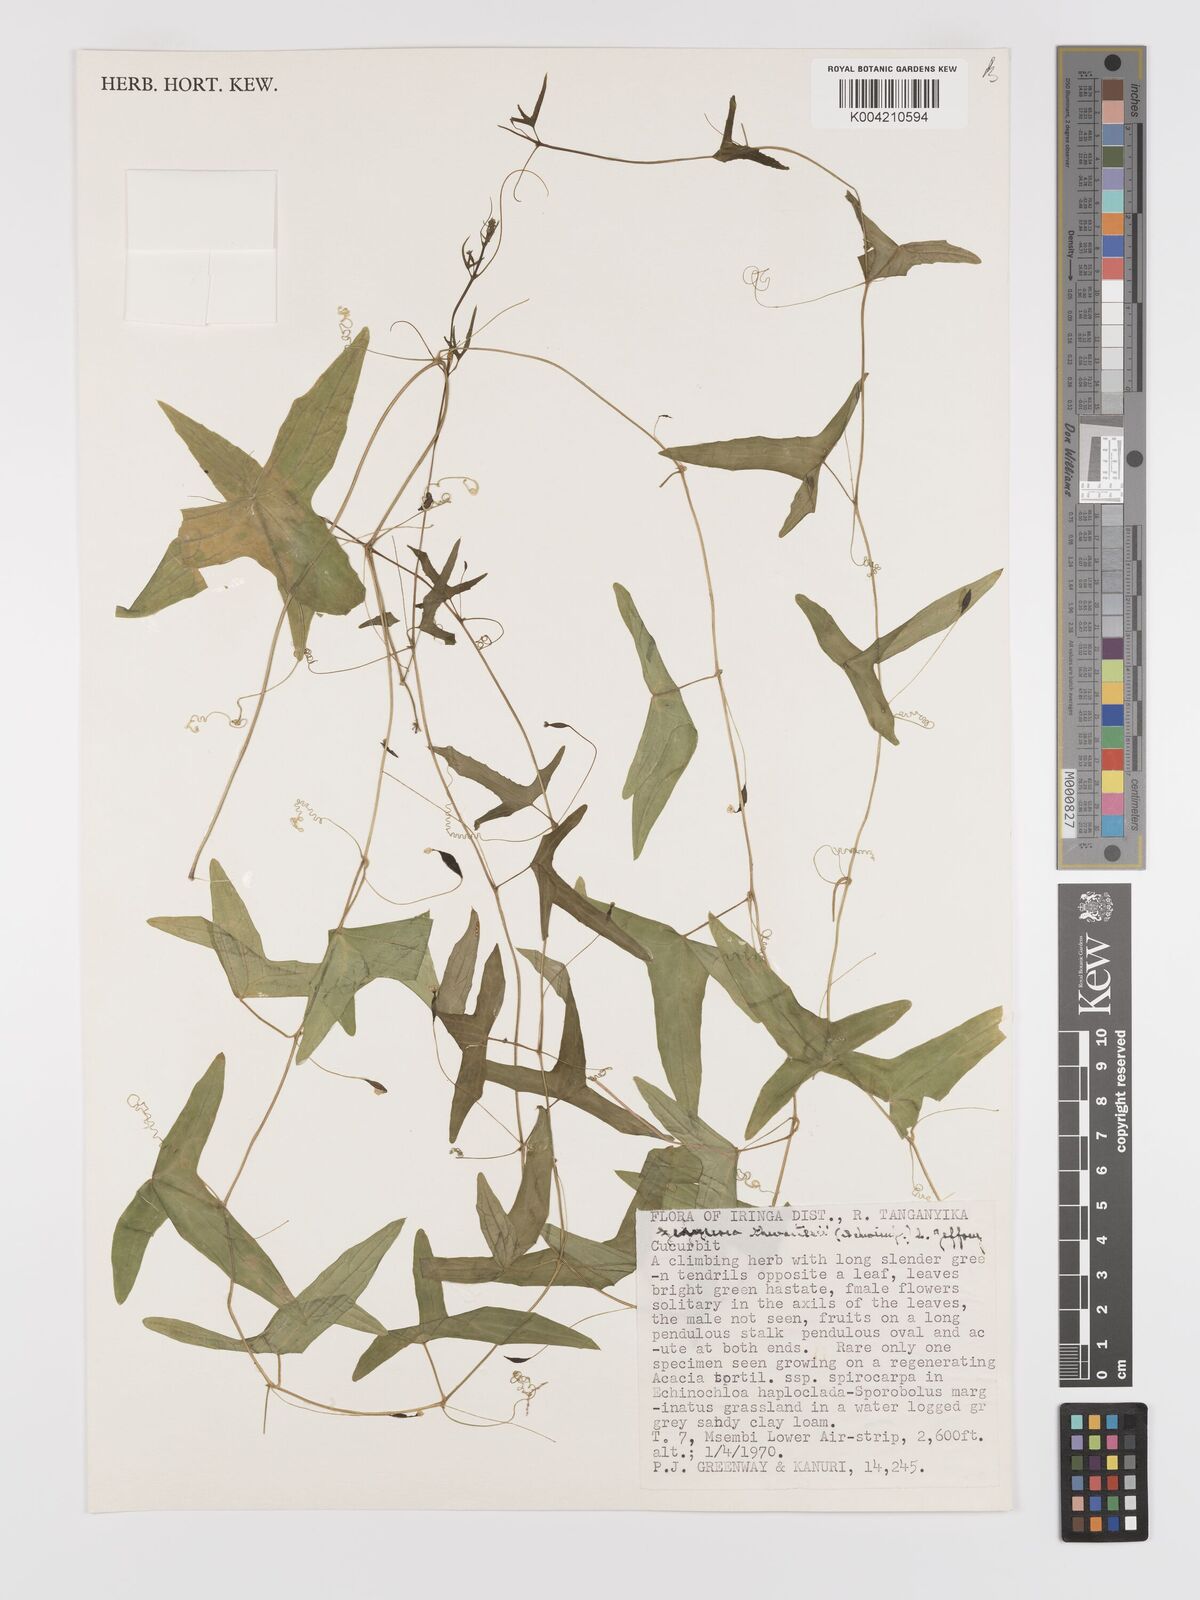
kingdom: Plantae
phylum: Tracheophyta
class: Magnoliopsida
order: Cucurbitales
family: Cucurbitaceae
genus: Zehneria
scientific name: Zehneria thwaitesii
